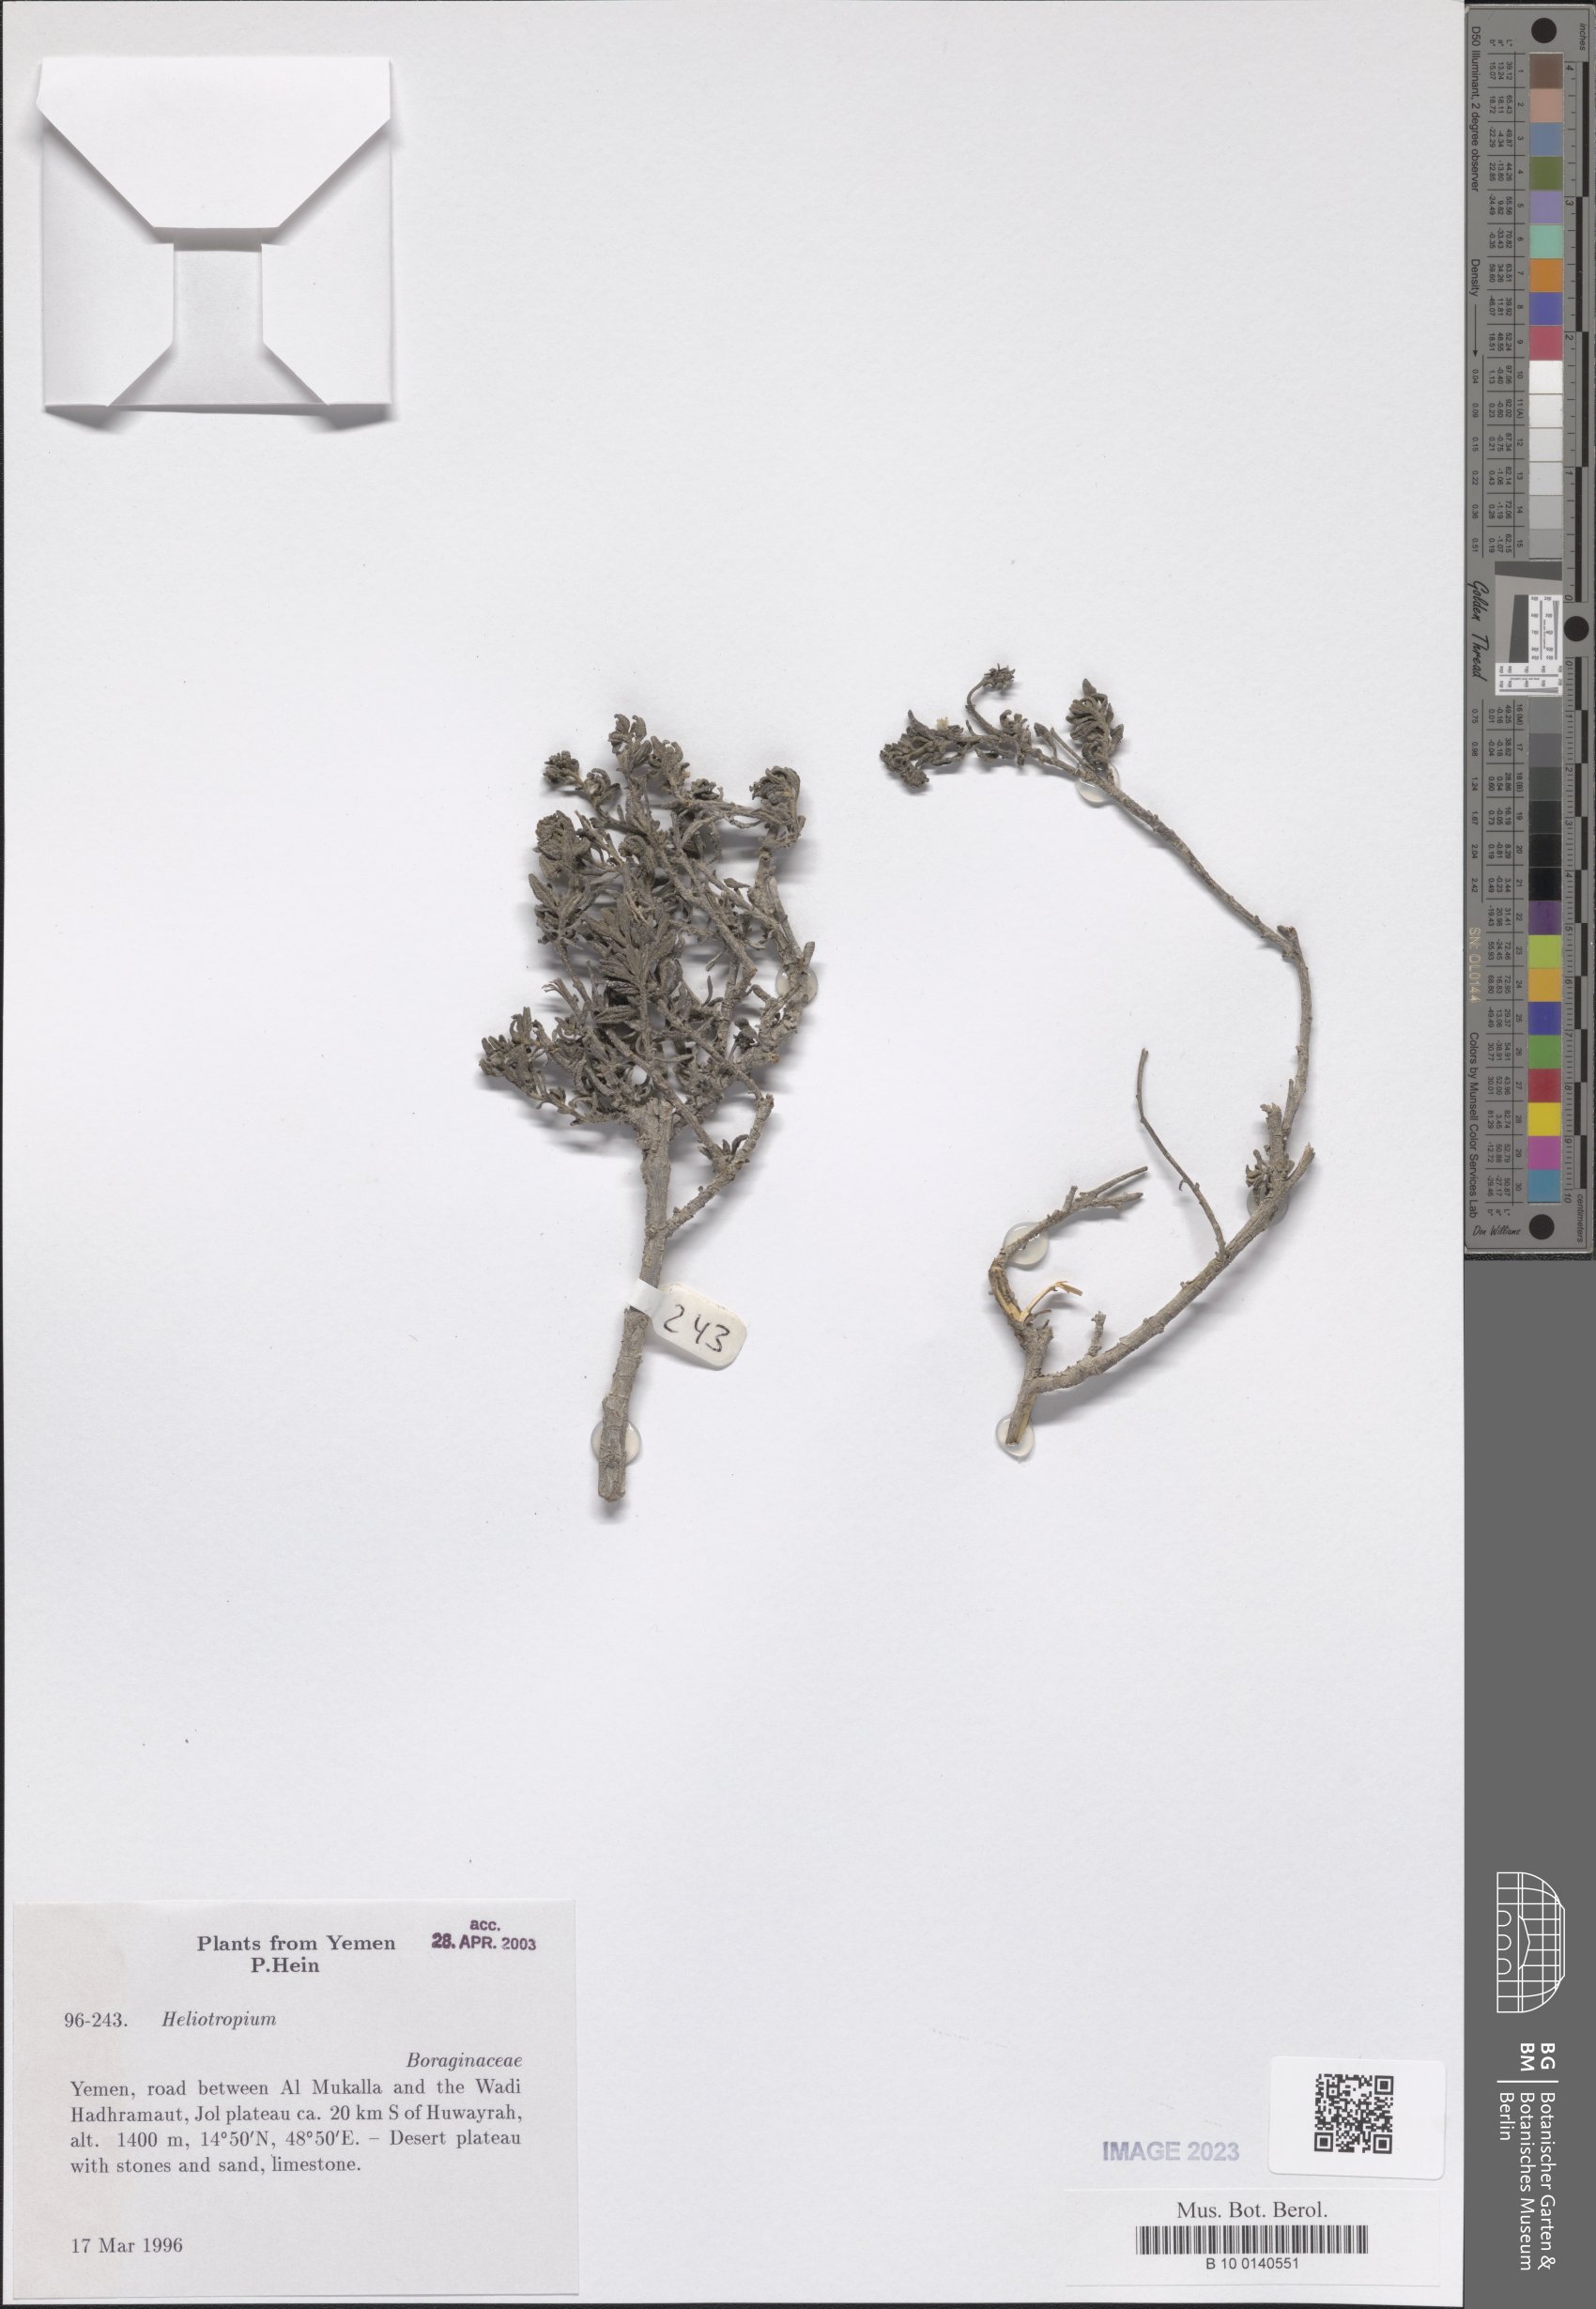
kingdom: Plantae
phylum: Tracheophyta
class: Magnoliopsida
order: Boraginales
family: Heliotropiaceae
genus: Heliotropium
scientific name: Heliotropium
